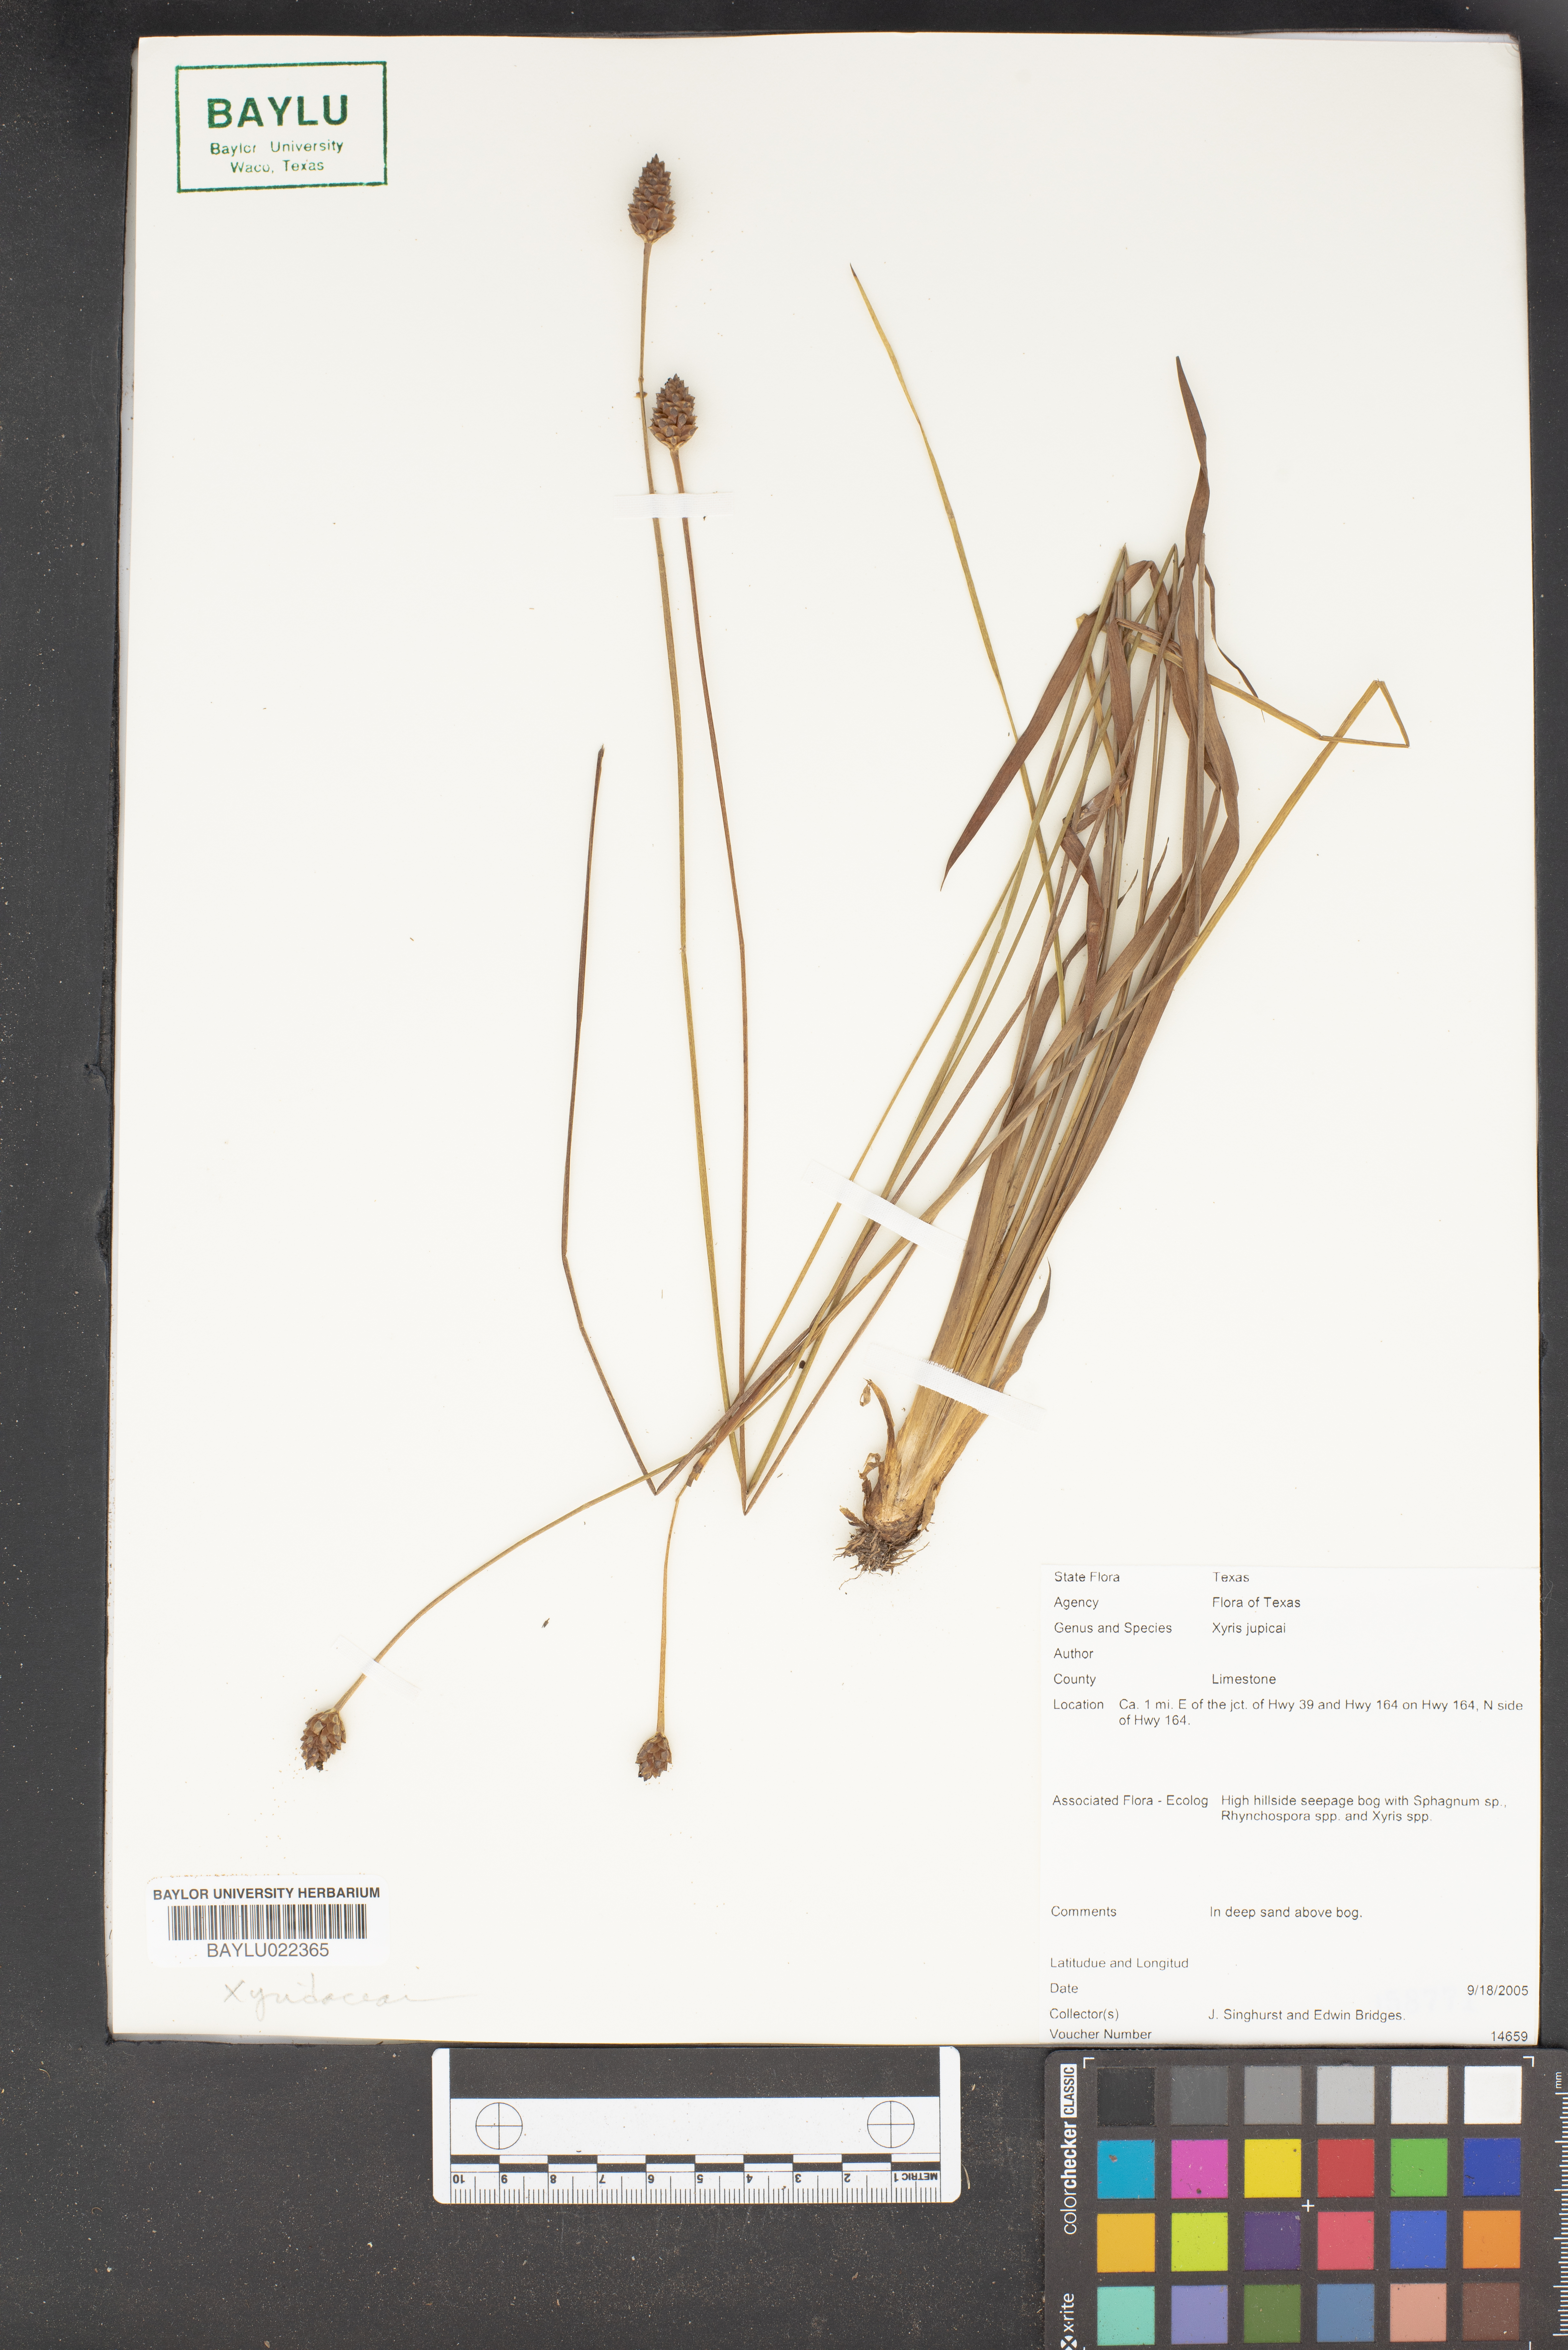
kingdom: Plantae
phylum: Tracheophyta
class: Liliopsida
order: Poales
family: Xyridaceae
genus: Xyris
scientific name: Xyris jupicai
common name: Richard's yelloweyed grass
